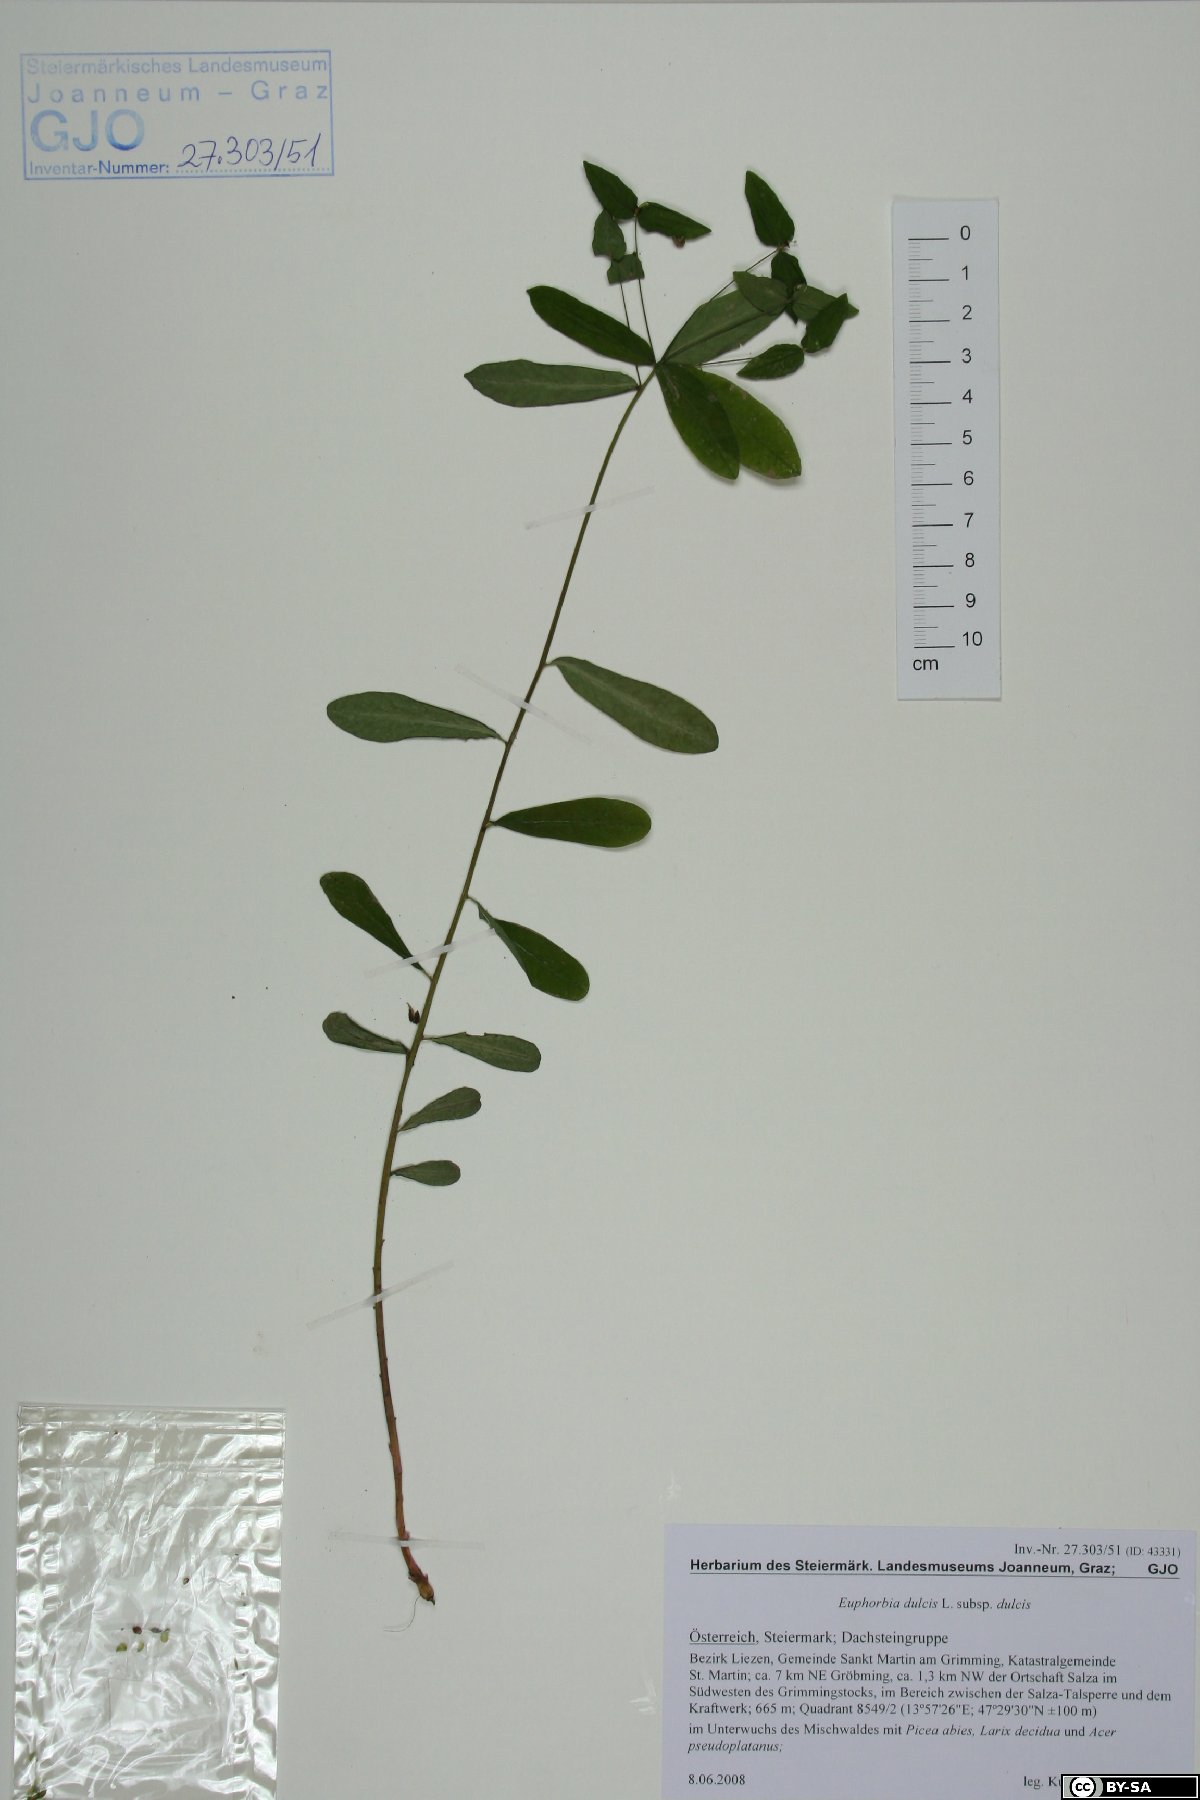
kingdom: Plantae
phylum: Tracheophyta
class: Magnoliopsida
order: Malpighiales
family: Euphorbiaceae
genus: Euphorbia
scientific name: Euphorbia dulcis
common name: Sweet spurge
